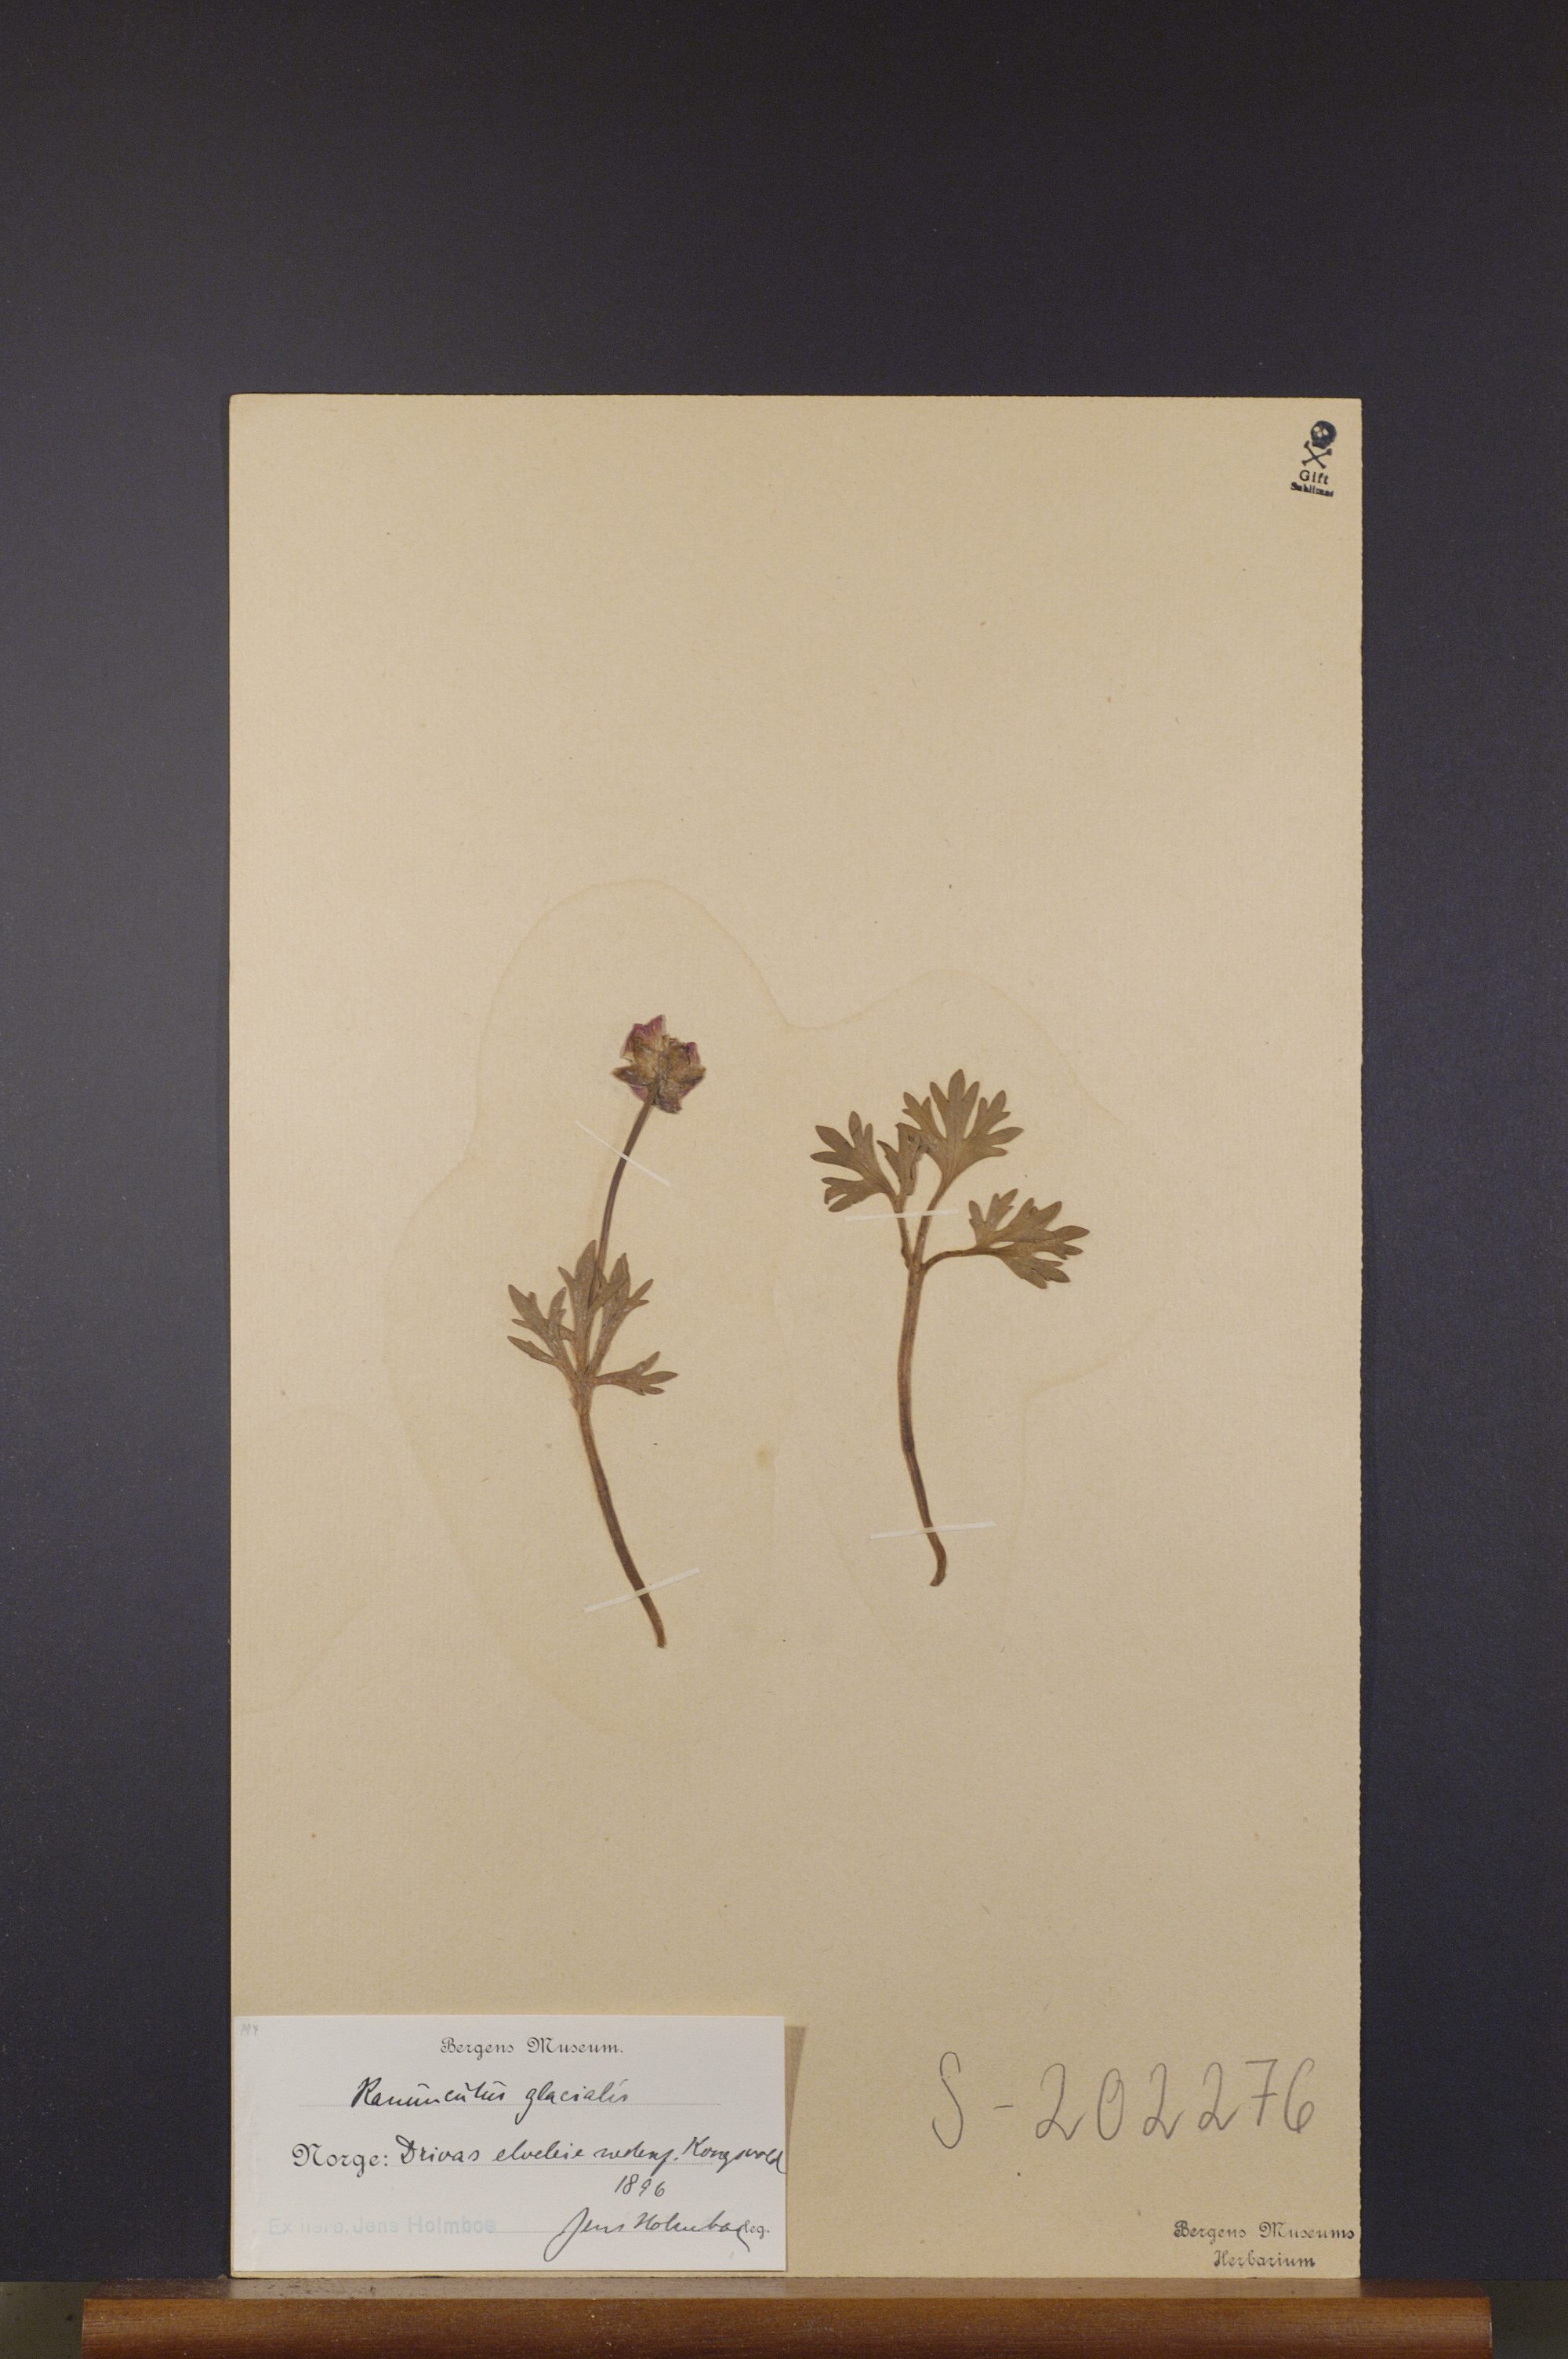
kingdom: Plantae
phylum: Tracheophyta
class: Magnoliopsida
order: Ranunculales
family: Ranunculaceae
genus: Ranunculus
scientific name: Ranunculus glacialis
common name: Glacier buttercup
